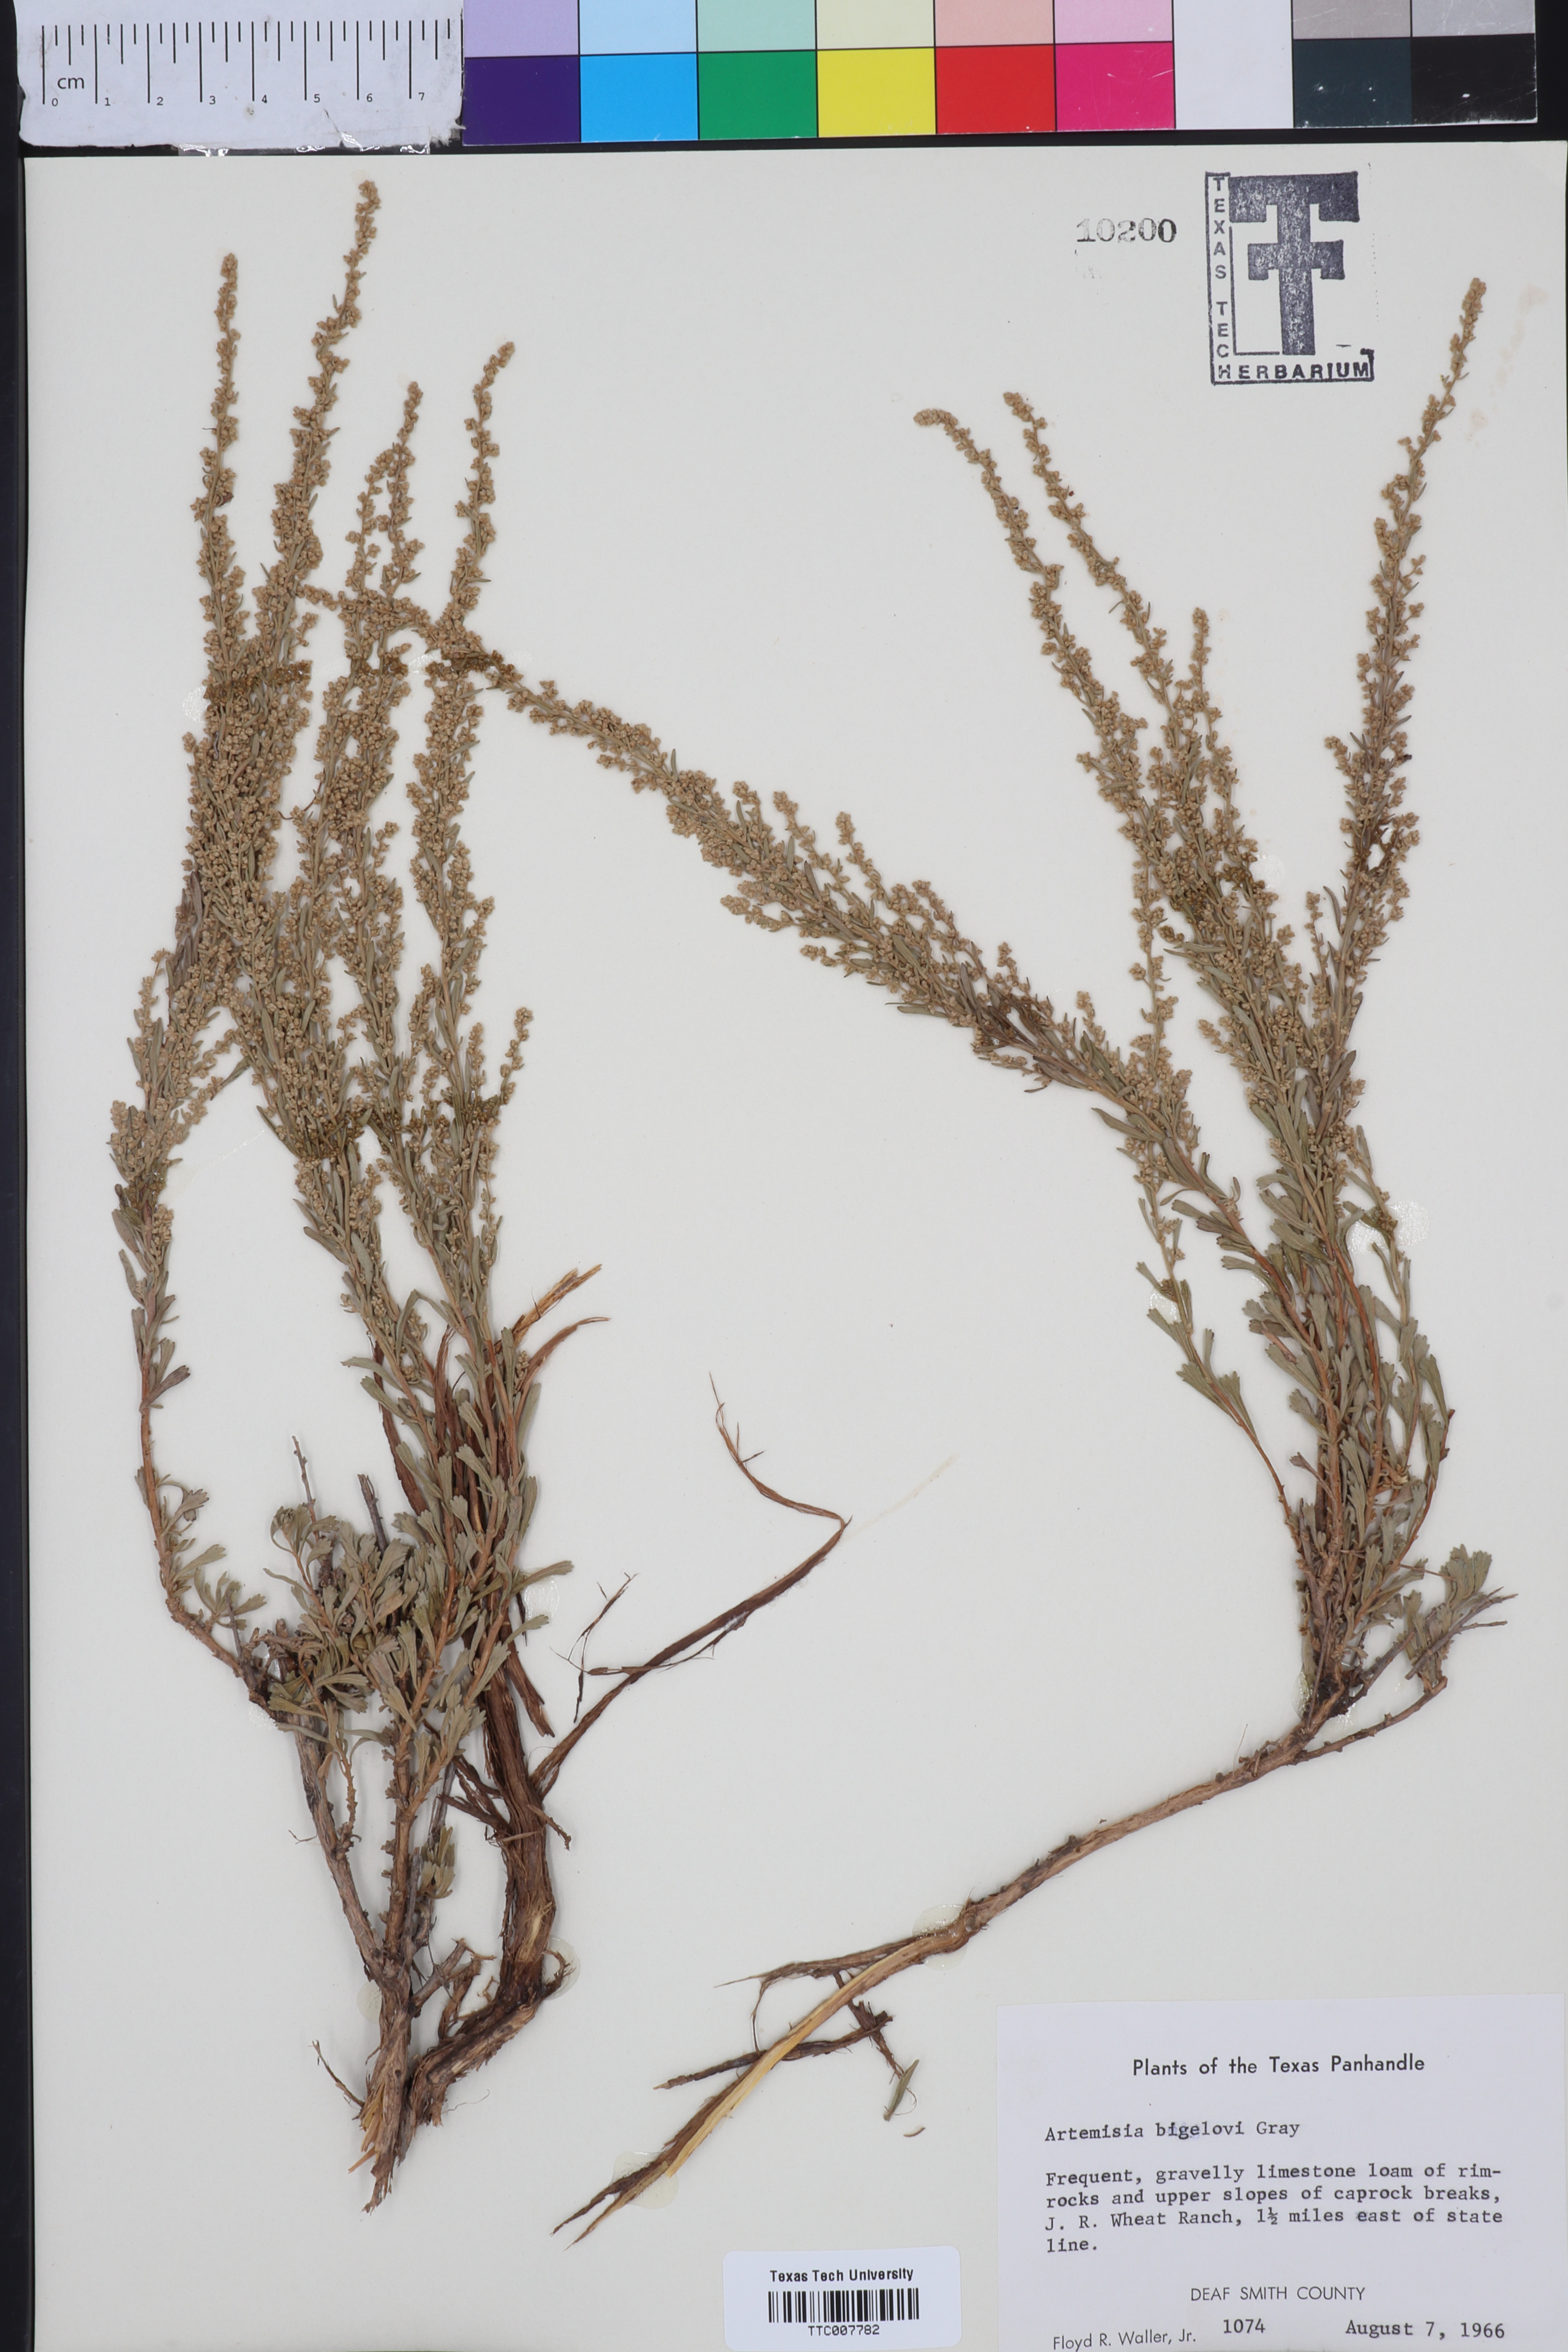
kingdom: Plantae
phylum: Tracheophyta
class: Magnoliopsida
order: Asterales
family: Asteraceae
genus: Artemisia
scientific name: Artemisia bigelovii
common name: Bigelow sagebrush
